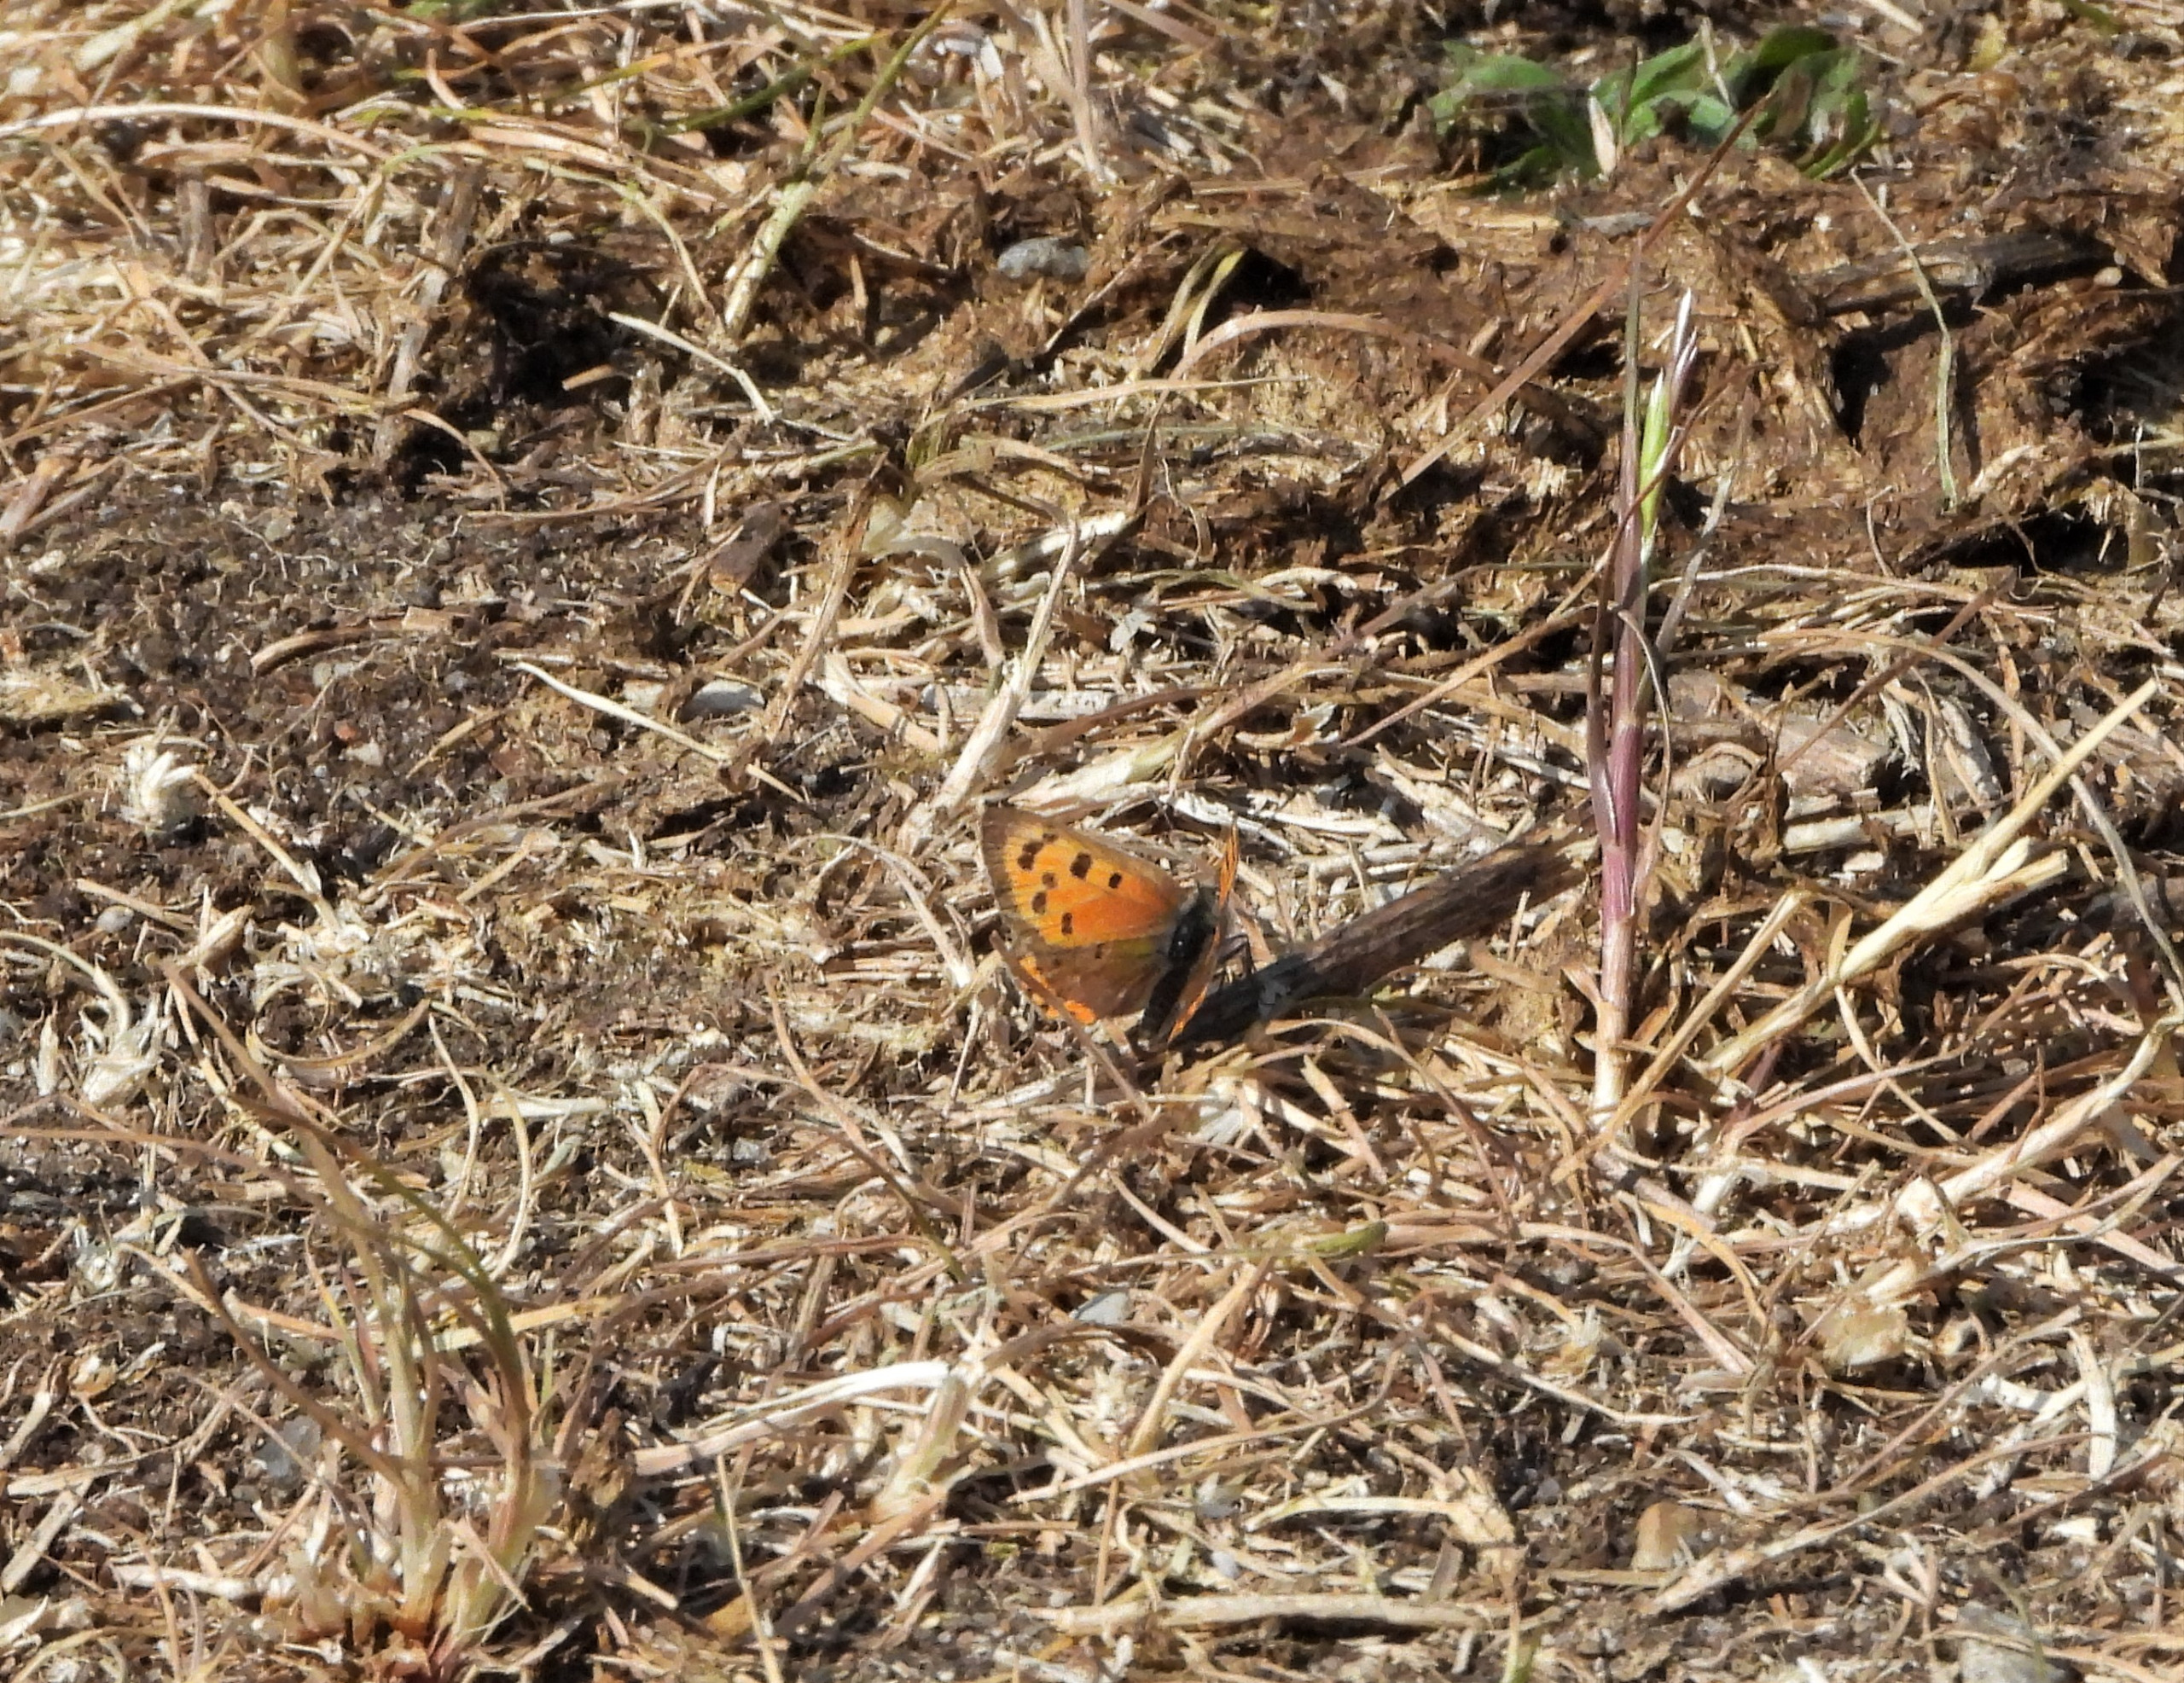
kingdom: Animalia
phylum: Arthropoda
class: Insecta
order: Lepidoptera
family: Lycaenidae
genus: Lycaena
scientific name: Lycaena phlaeas
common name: Lille ildfugl
